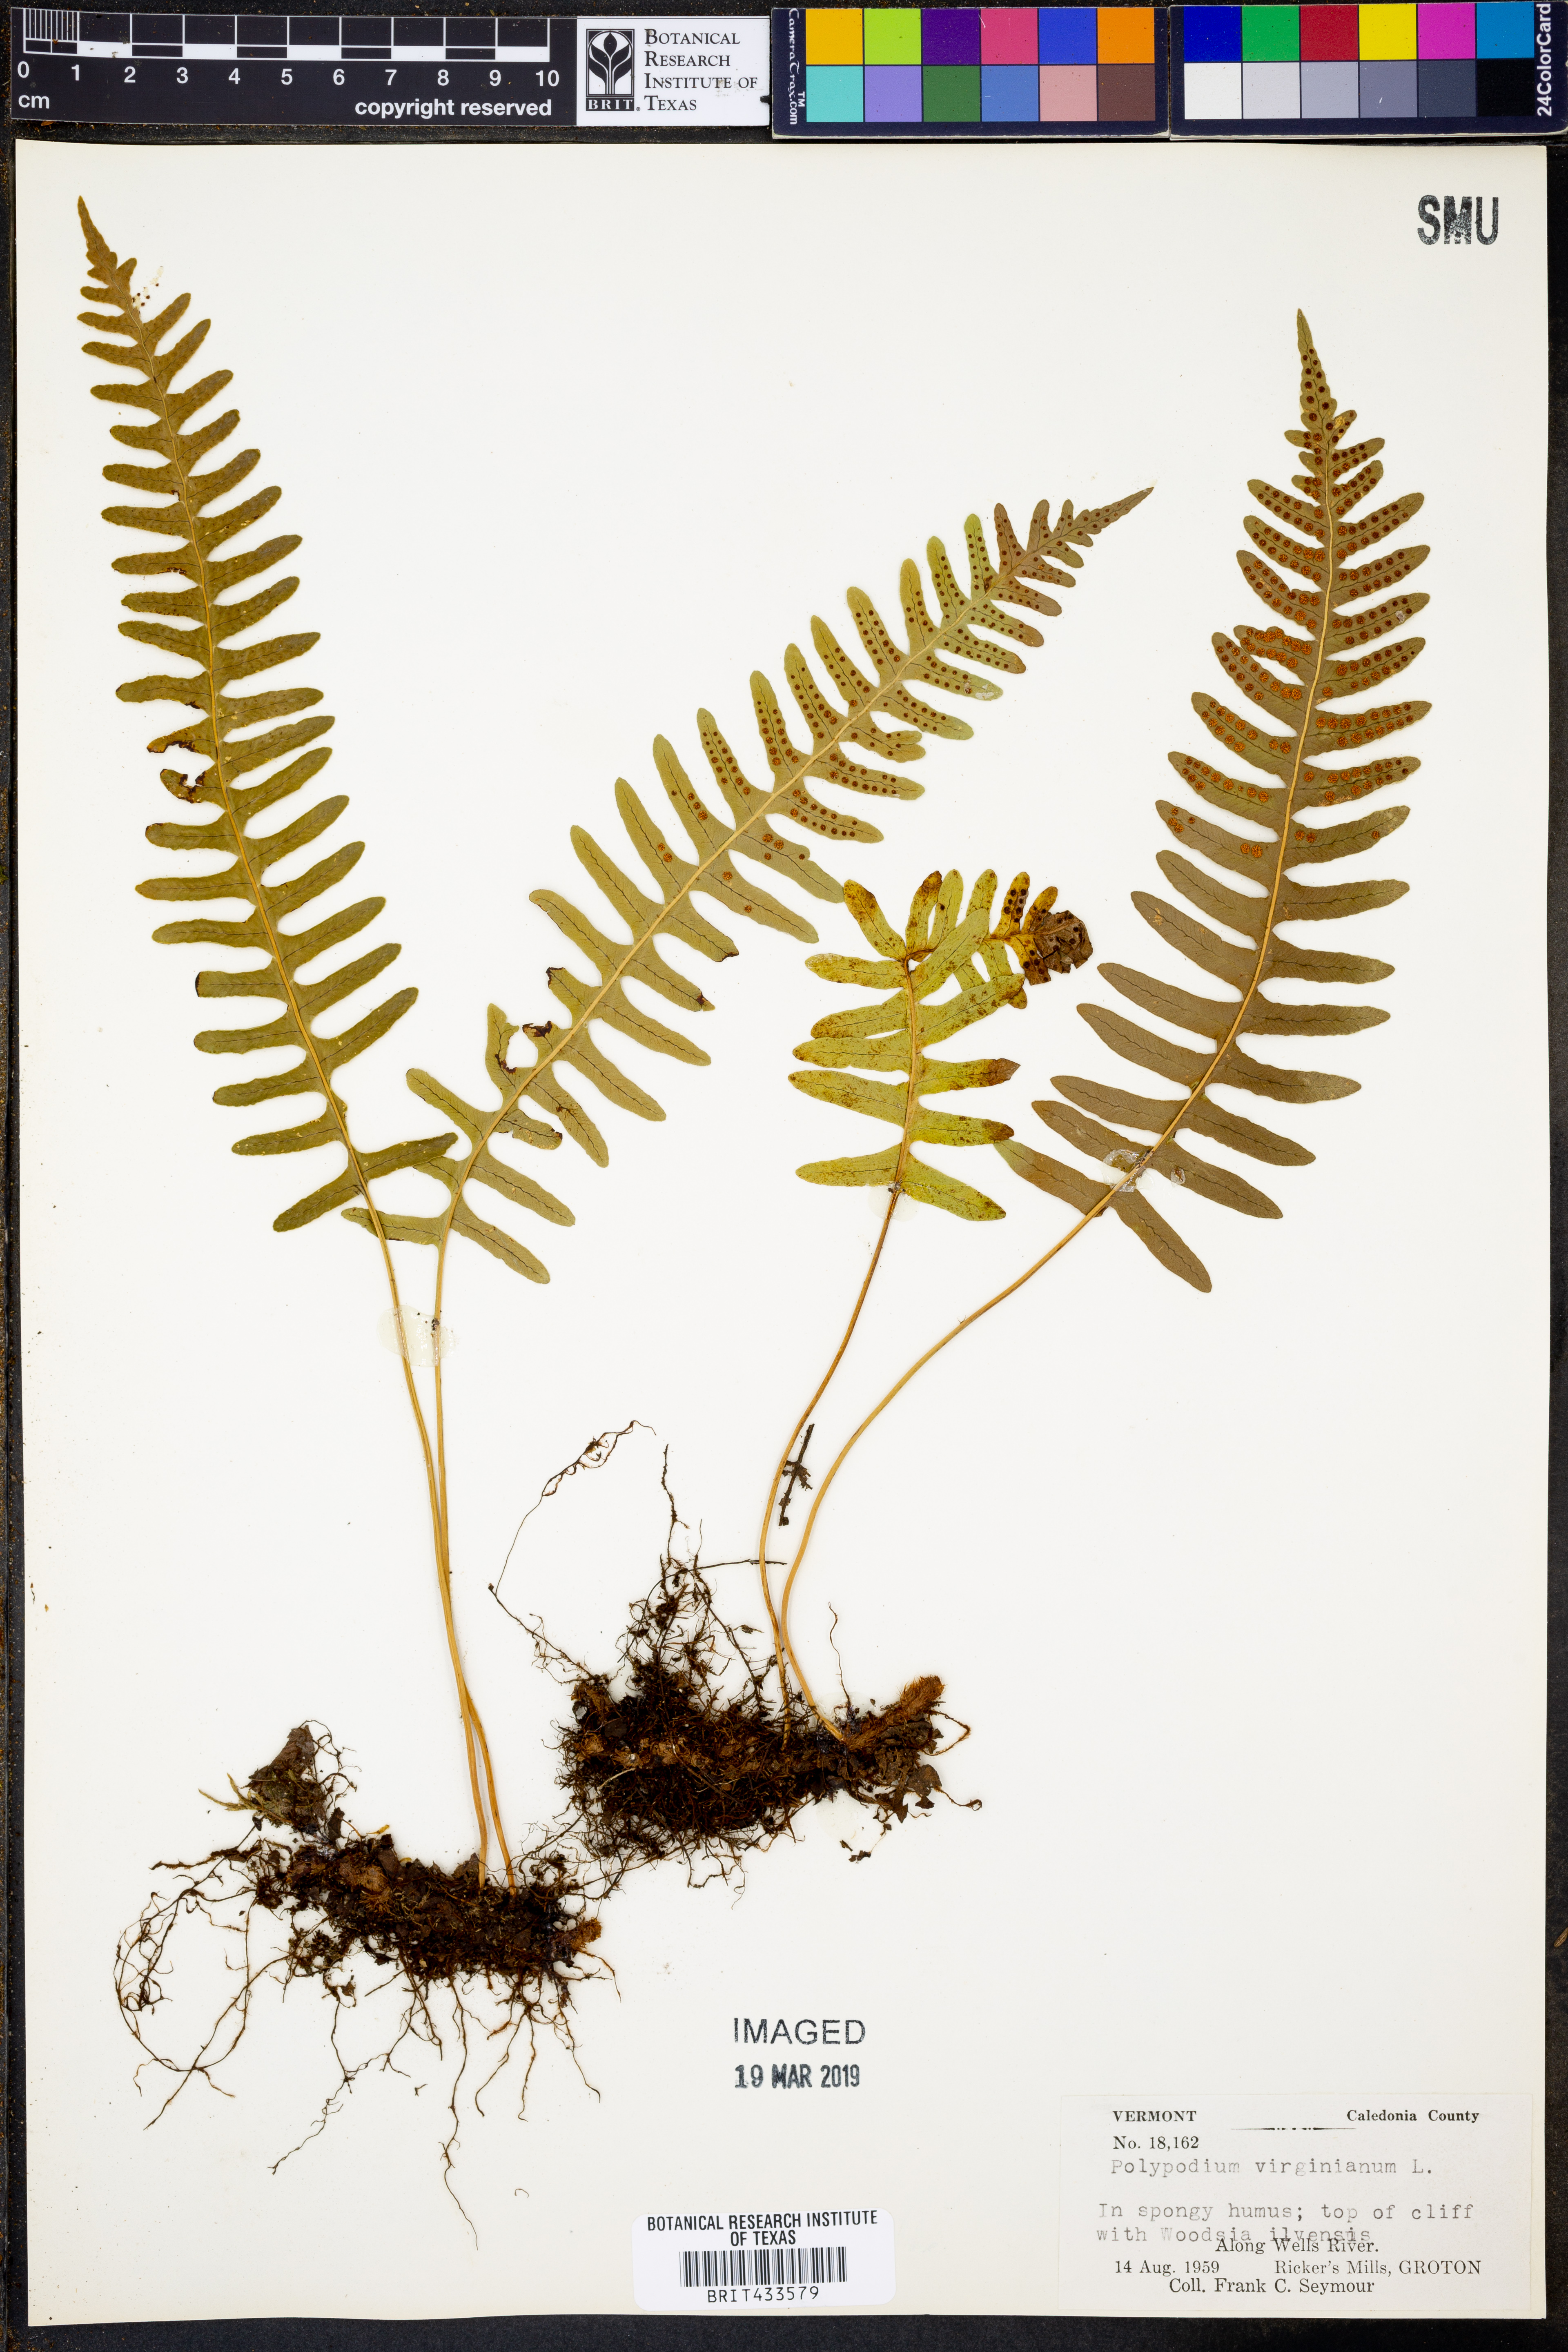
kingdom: Plantae
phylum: Tracheophyta
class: Polypodiopsida
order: Polypodiales
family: Polypodiaceae
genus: Polypodium
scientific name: Polypodium virginianum
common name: American wall fern
